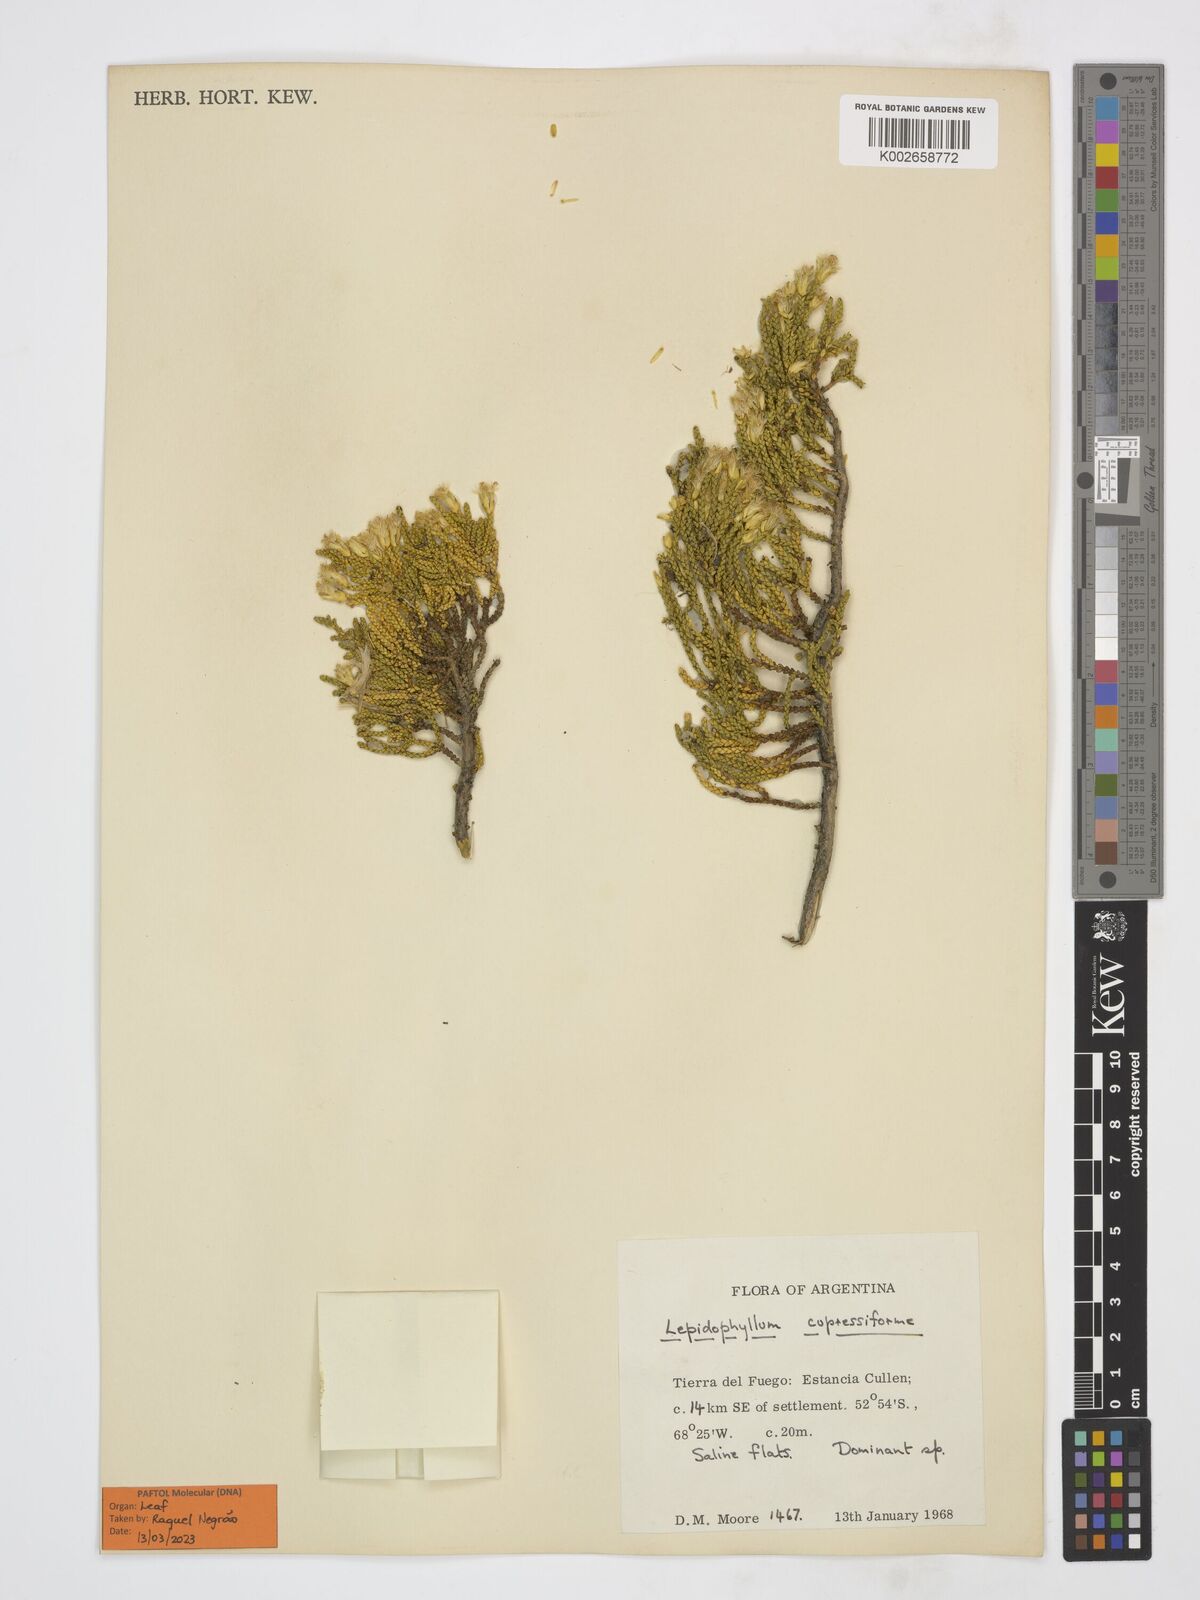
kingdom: Plantae
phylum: Tracheophyta
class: Magnoliopsida
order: Asterales
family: Asteraceae
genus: Lepidophyllum
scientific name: Lepidophyllum cupressiforme
